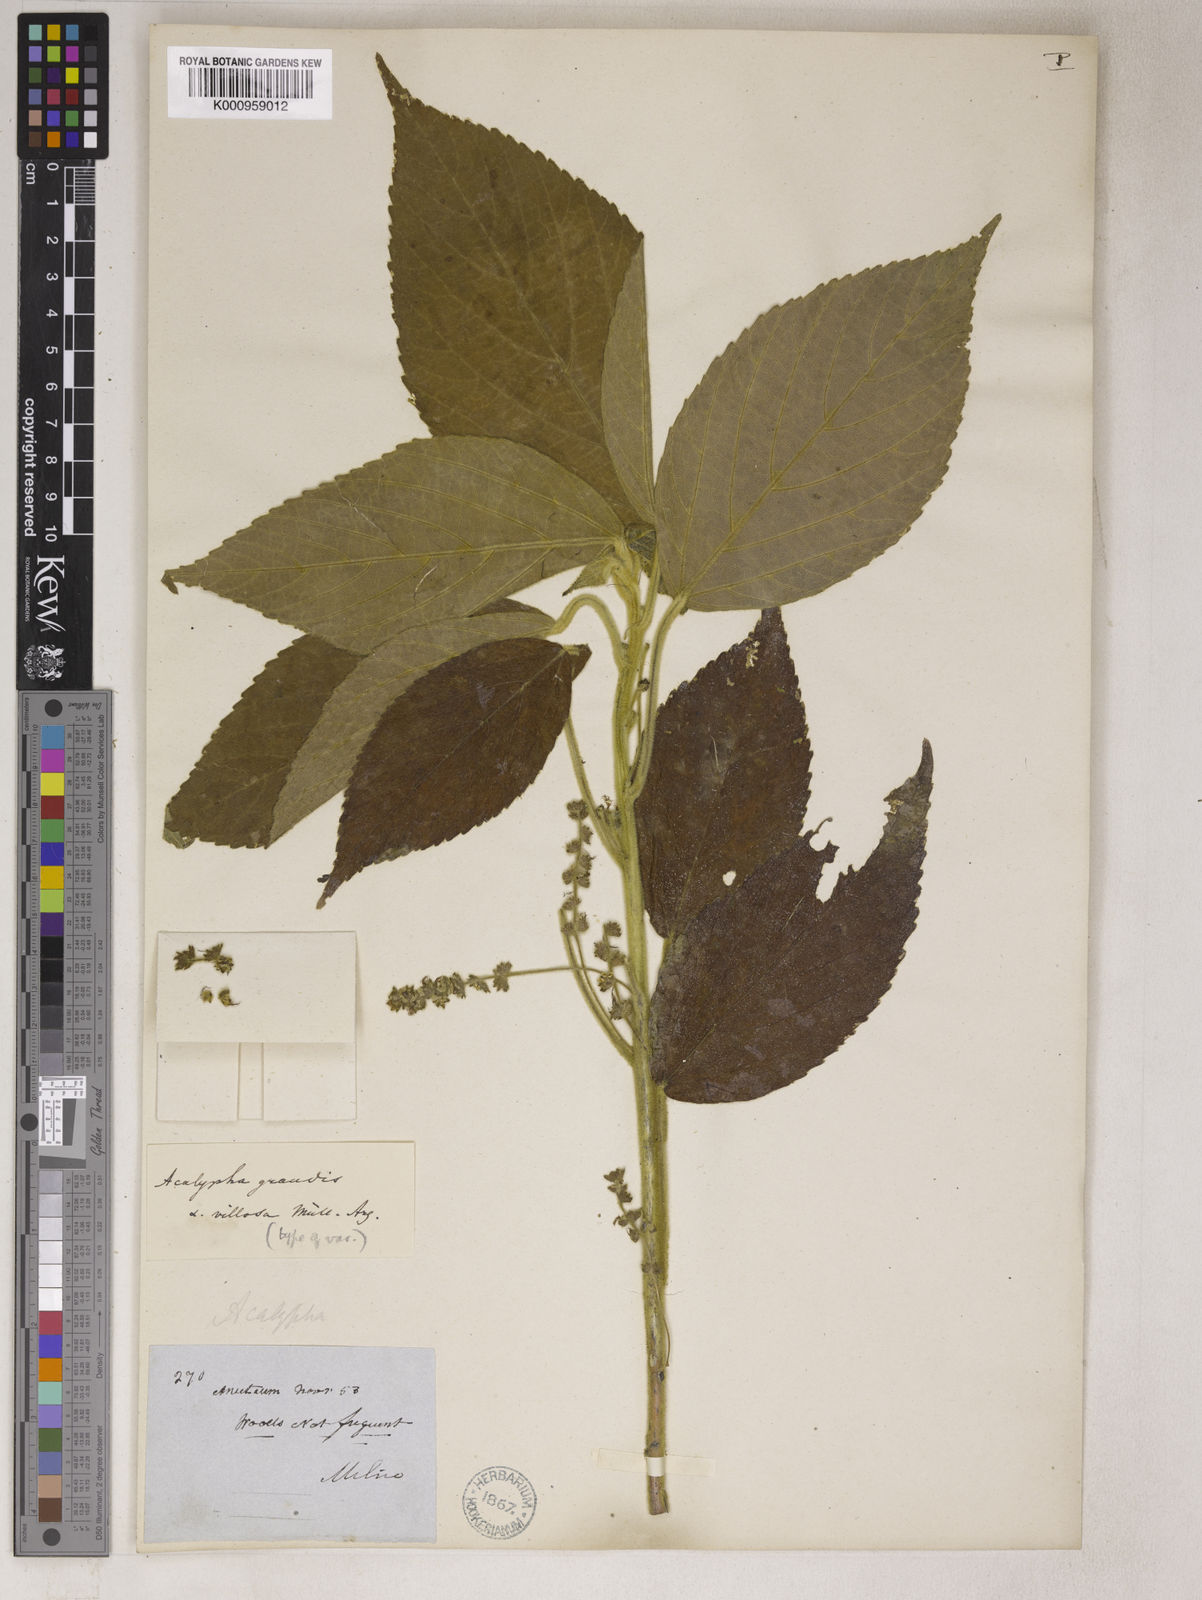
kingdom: Plantae
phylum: Tracheophyta
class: Magnoliopsida
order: Malpighiales
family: Euphorbiaceae
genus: Acalypha
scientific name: Acalypha grandis
